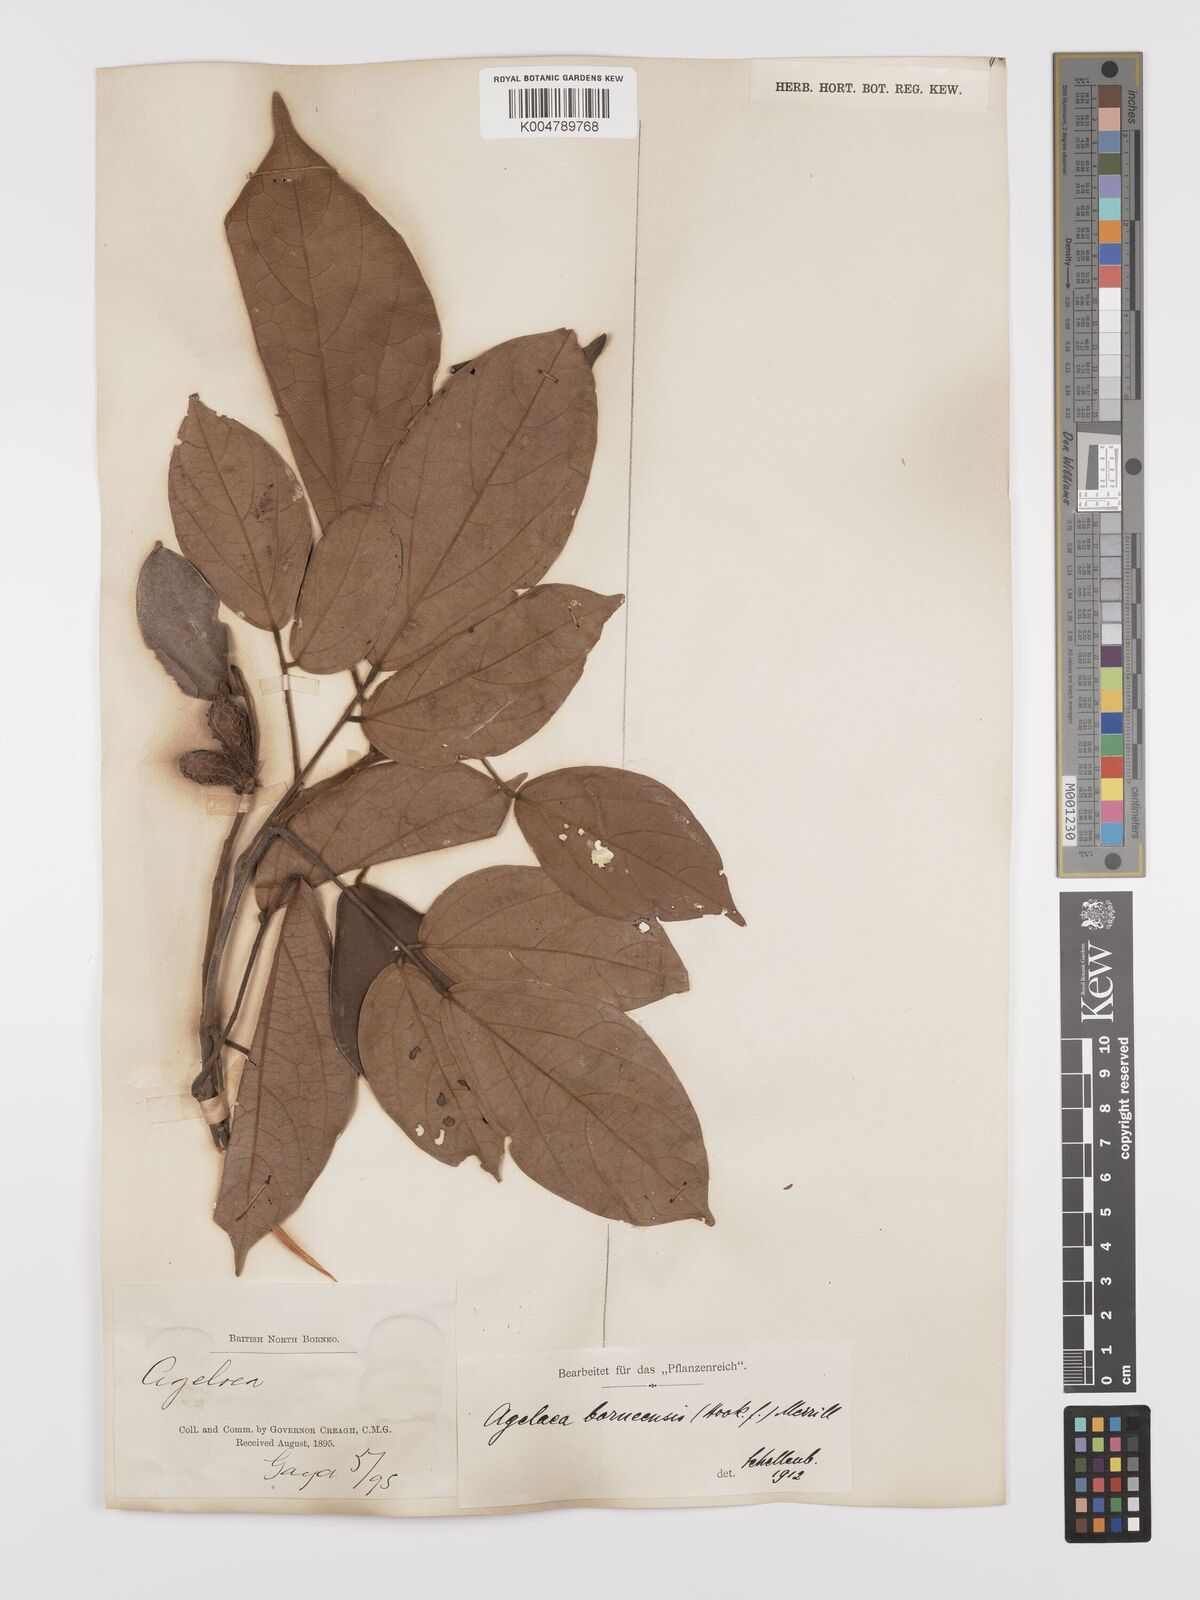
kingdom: Plantae
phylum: Tracheophyta
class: Magnoliopsida
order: Oxalidales
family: Connaraceae
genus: Agelaea
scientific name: Agelaea borneensis
